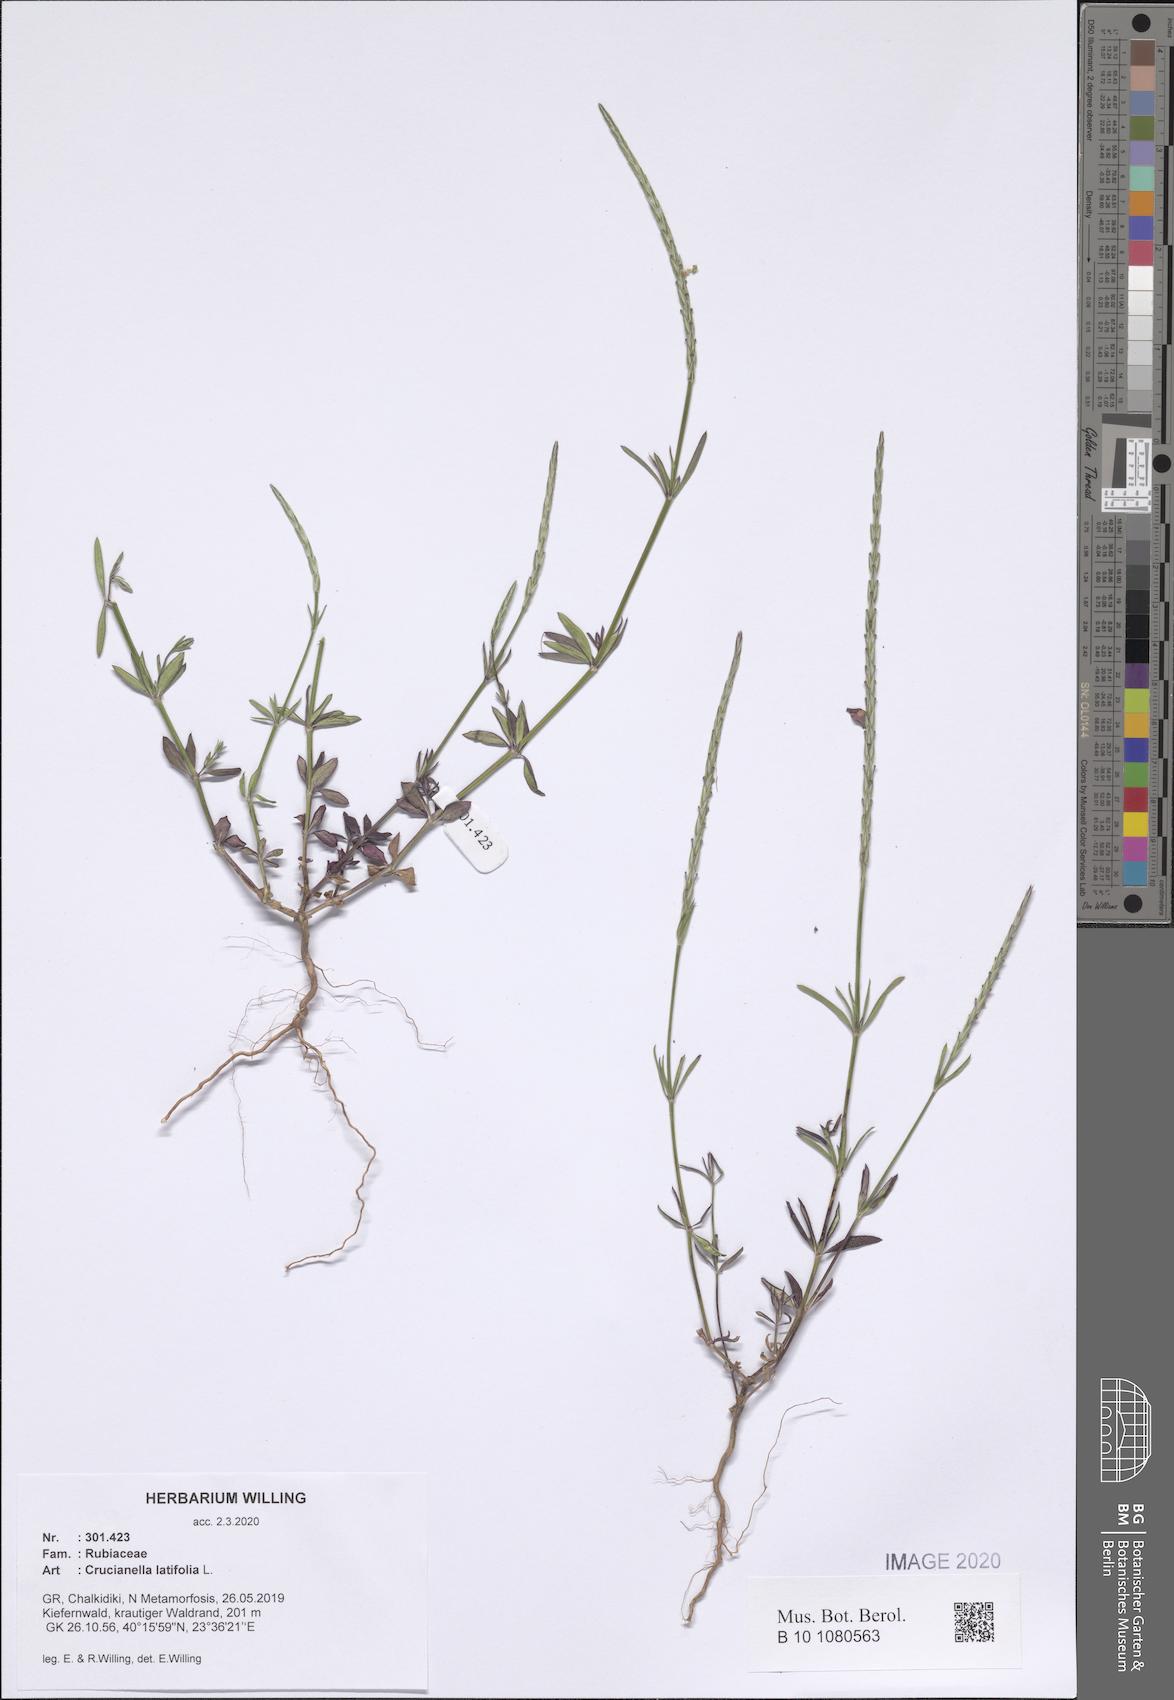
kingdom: Plantae
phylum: Tracheophyta
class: Magnoliopsida
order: Gentianales
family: Rubiaceae
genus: Crucianella
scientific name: Crucianella latifolia
